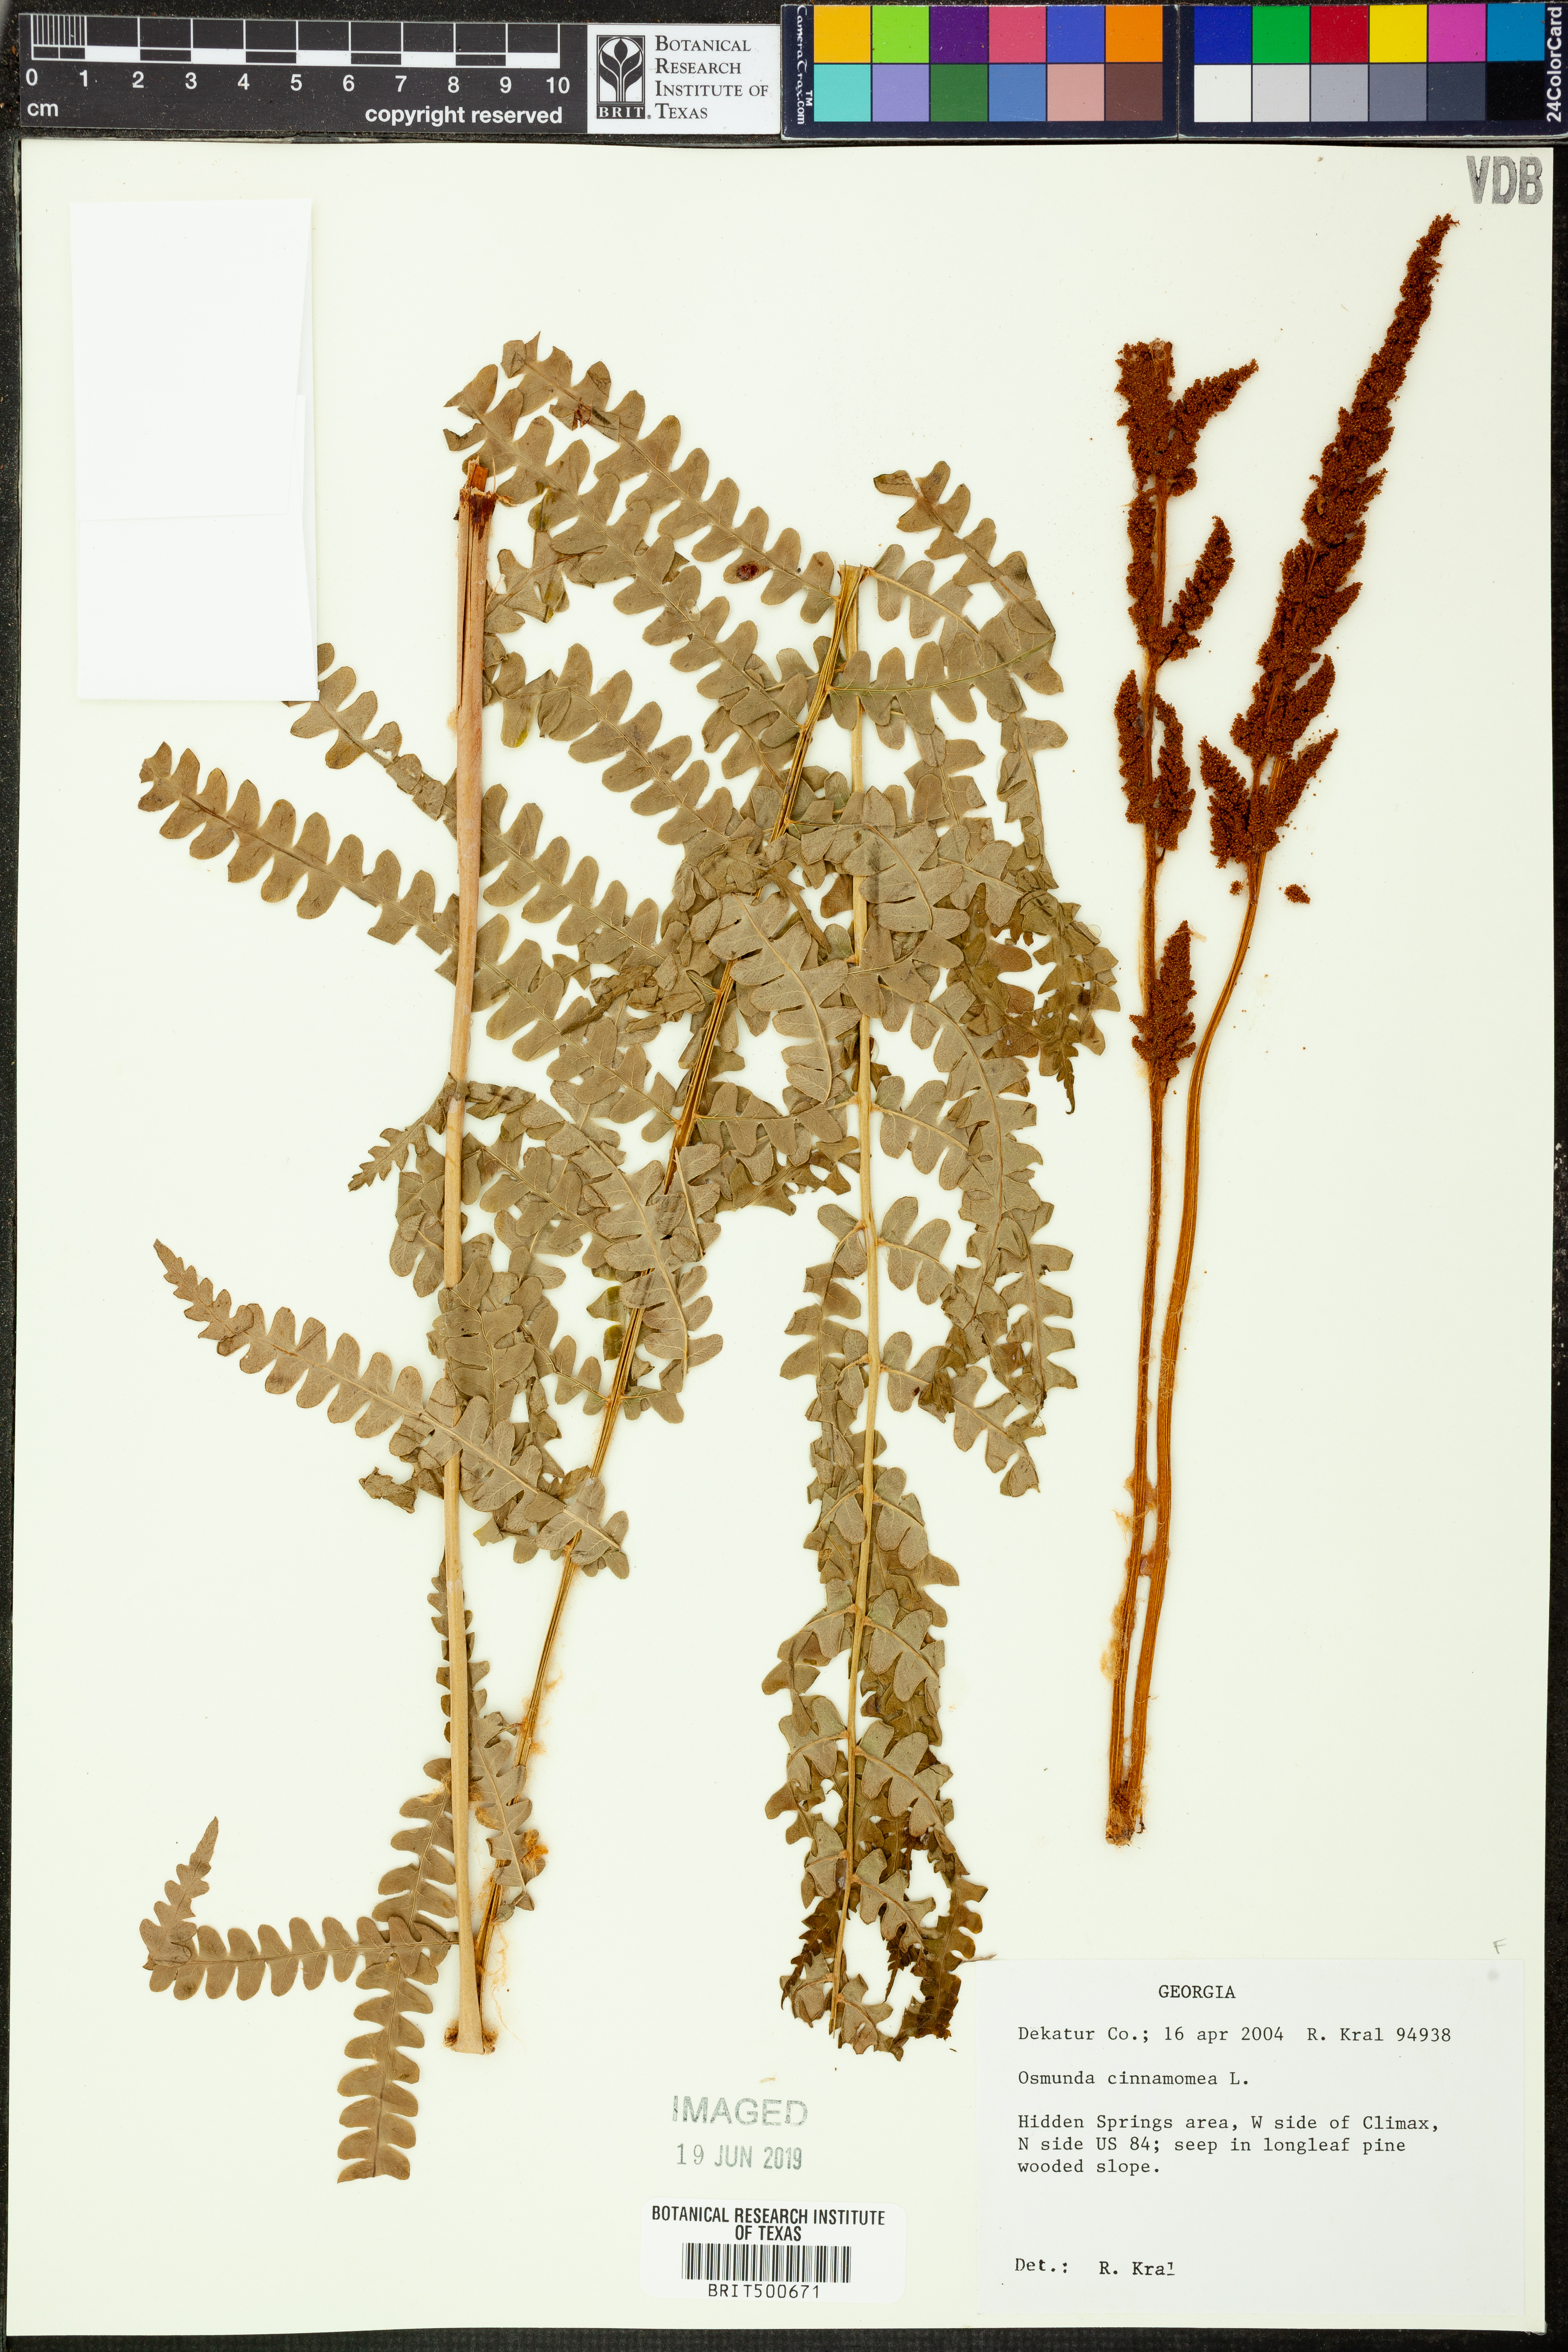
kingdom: Plantae
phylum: Tracheophyta
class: Polypodiopsida
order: Osmundales
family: Osmundaceae
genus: Osmundastrum
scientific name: Osmundastrum cinnamomeum
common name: Cinnamon fern
